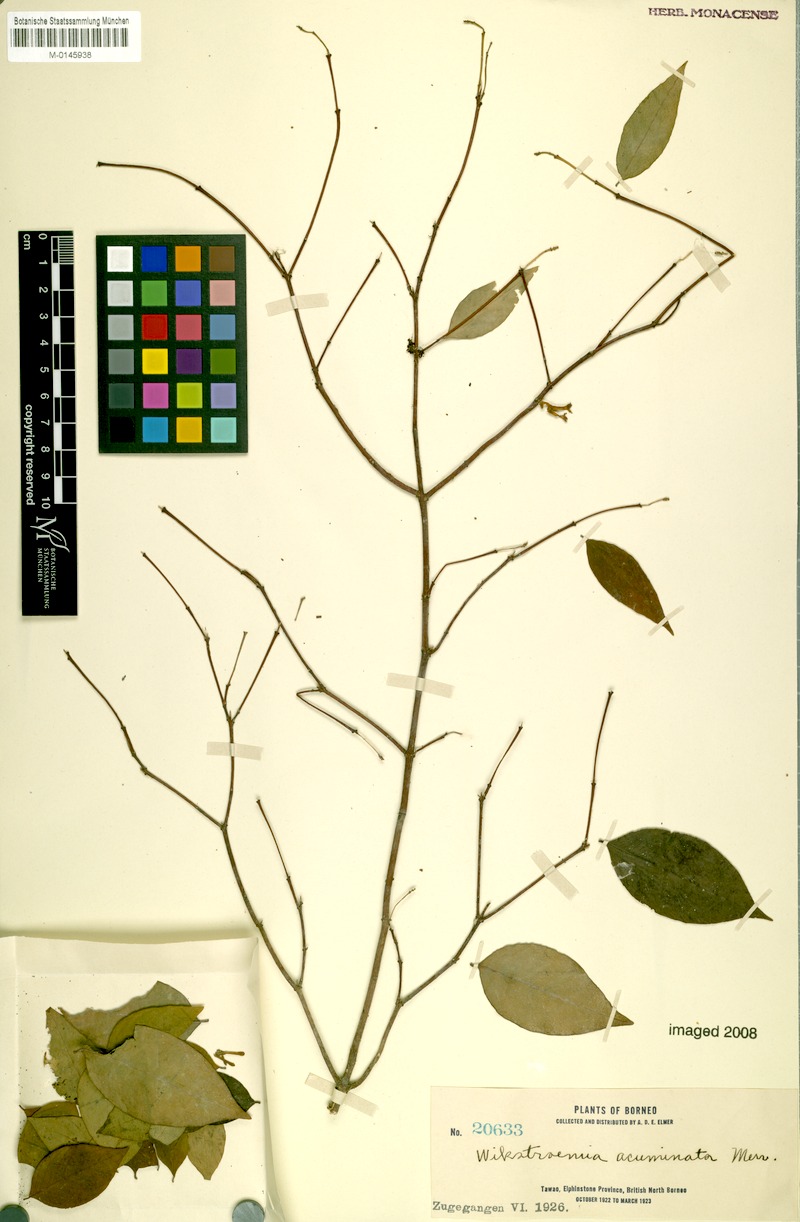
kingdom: Plantae
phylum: Tracheophyta
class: Magnoliopsida
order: Malvales
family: Thymelaeaceae
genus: Wikstroemia
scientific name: Wikstroemia tenuiramis
